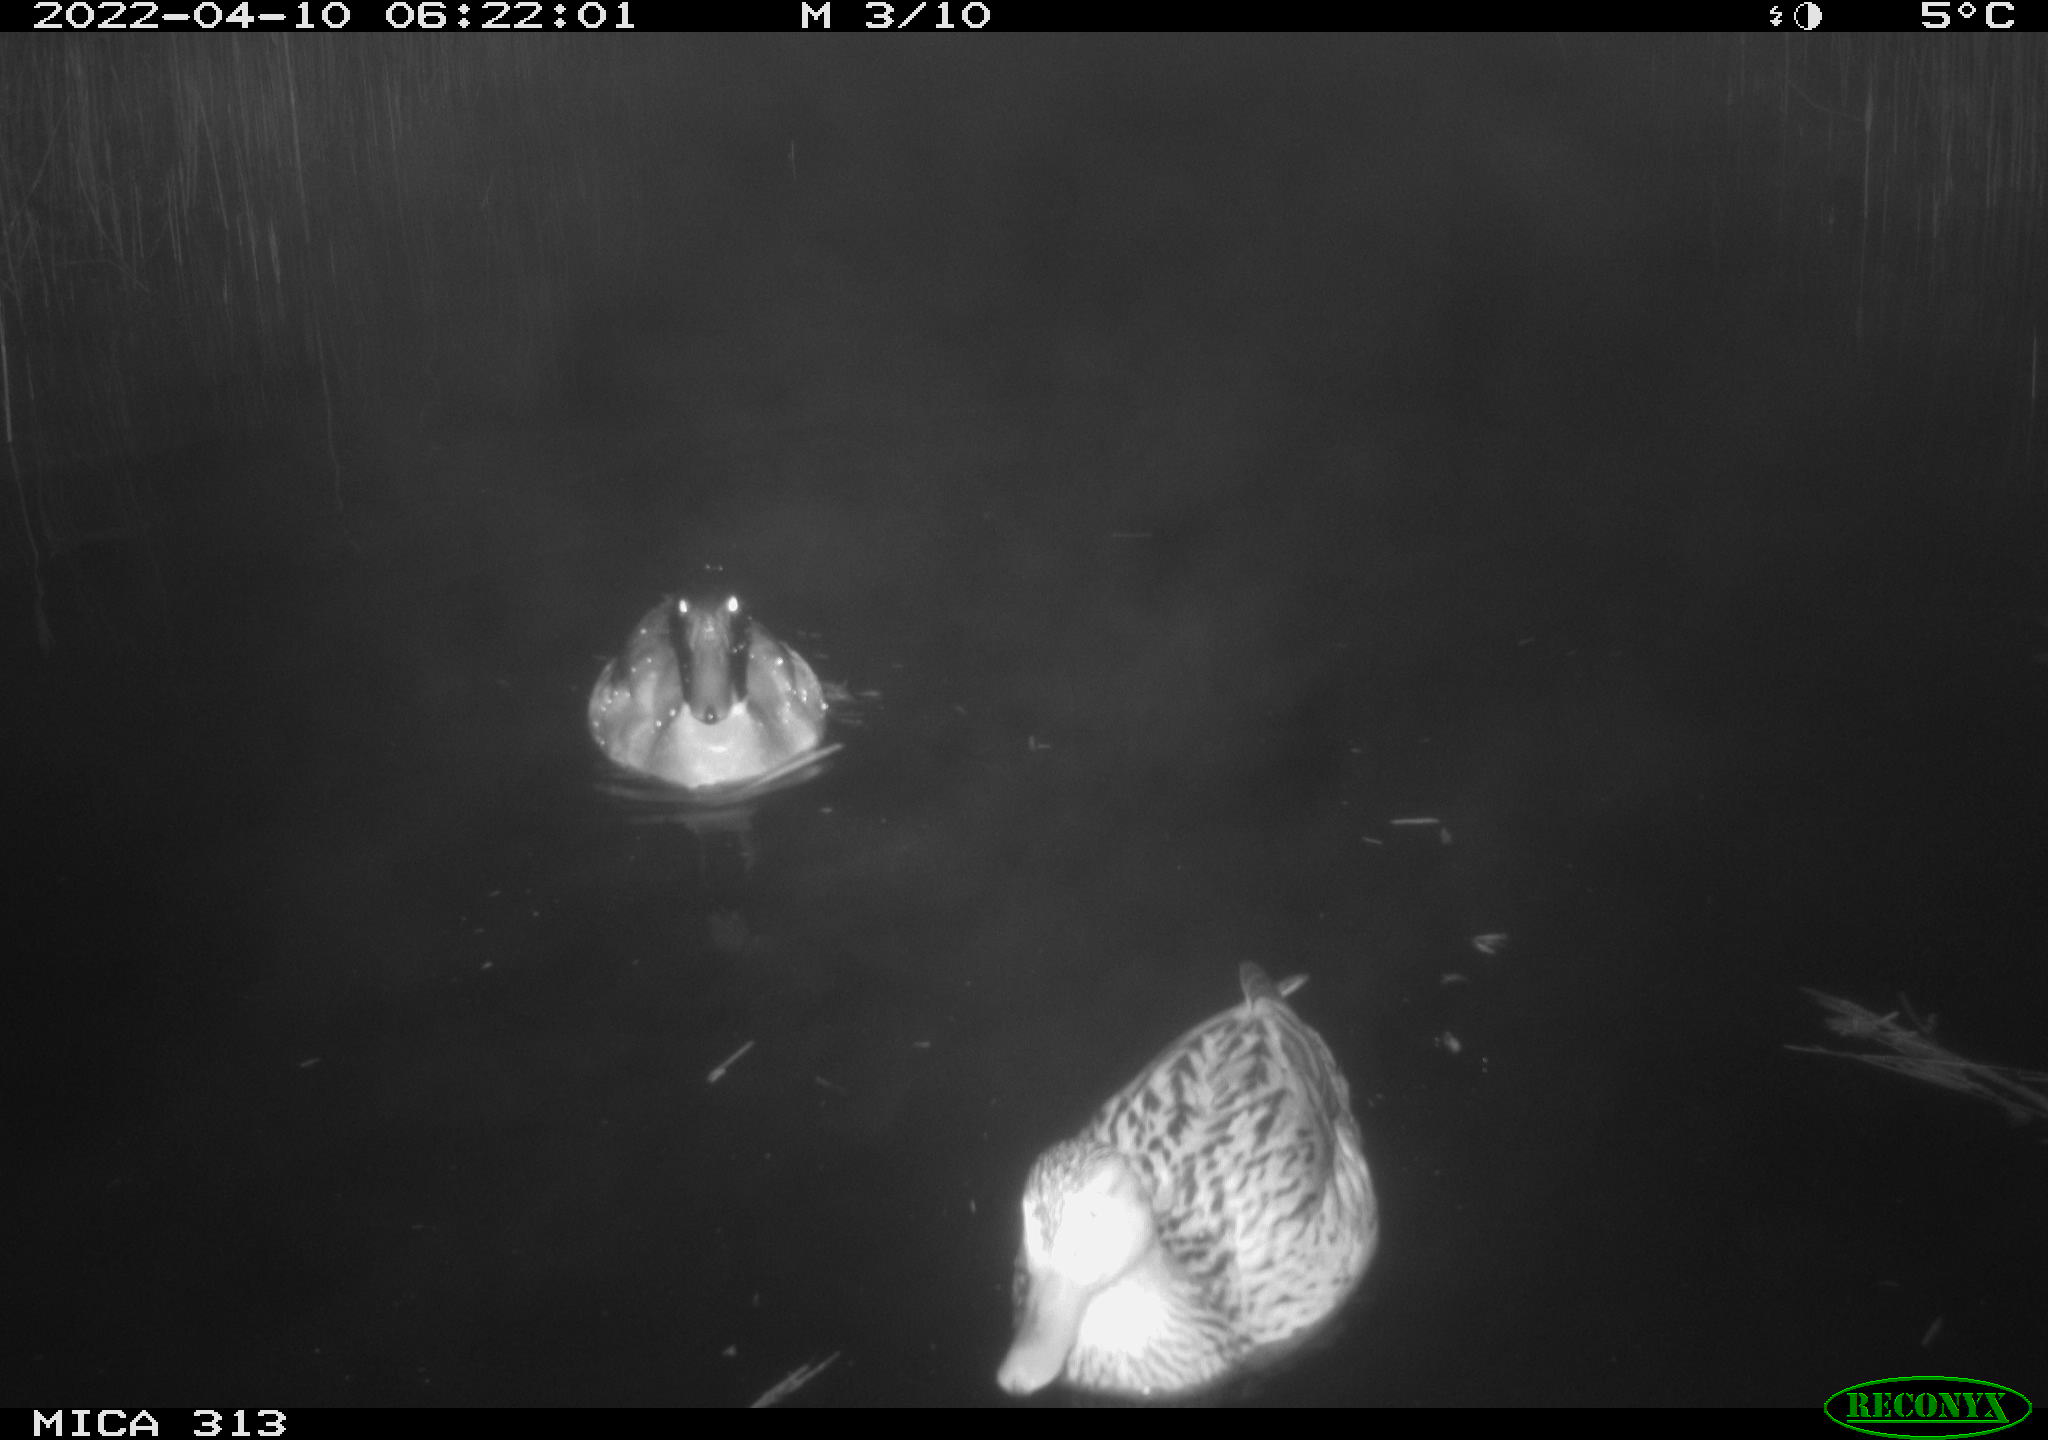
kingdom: Animalia
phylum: Chordata
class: Aves
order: Anseriformes
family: Anatidae
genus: Anas
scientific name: Anas platyrhynchos
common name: Mallard
